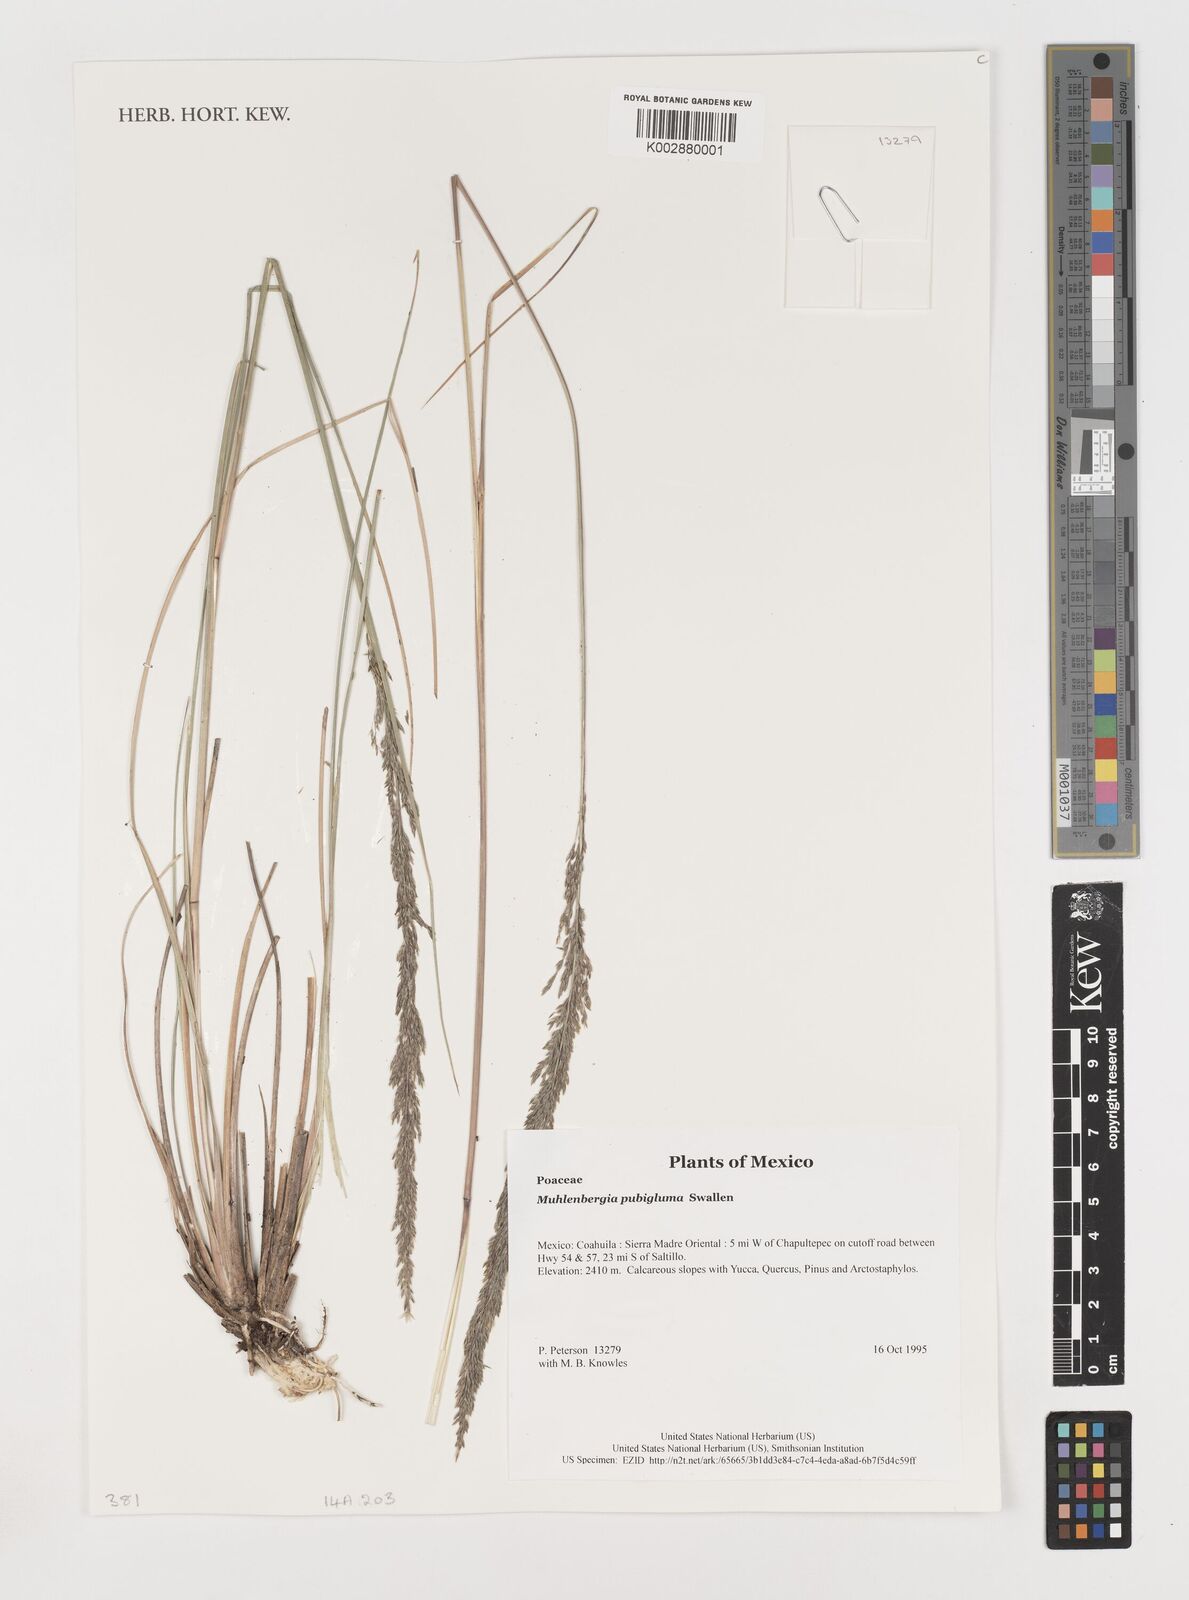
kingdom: Plantae
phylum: Tracheophyta
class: Liliopsida
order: Poales
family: Poaceae
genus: Muhlenbergia
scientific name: Muhlenbergia pubigluma
